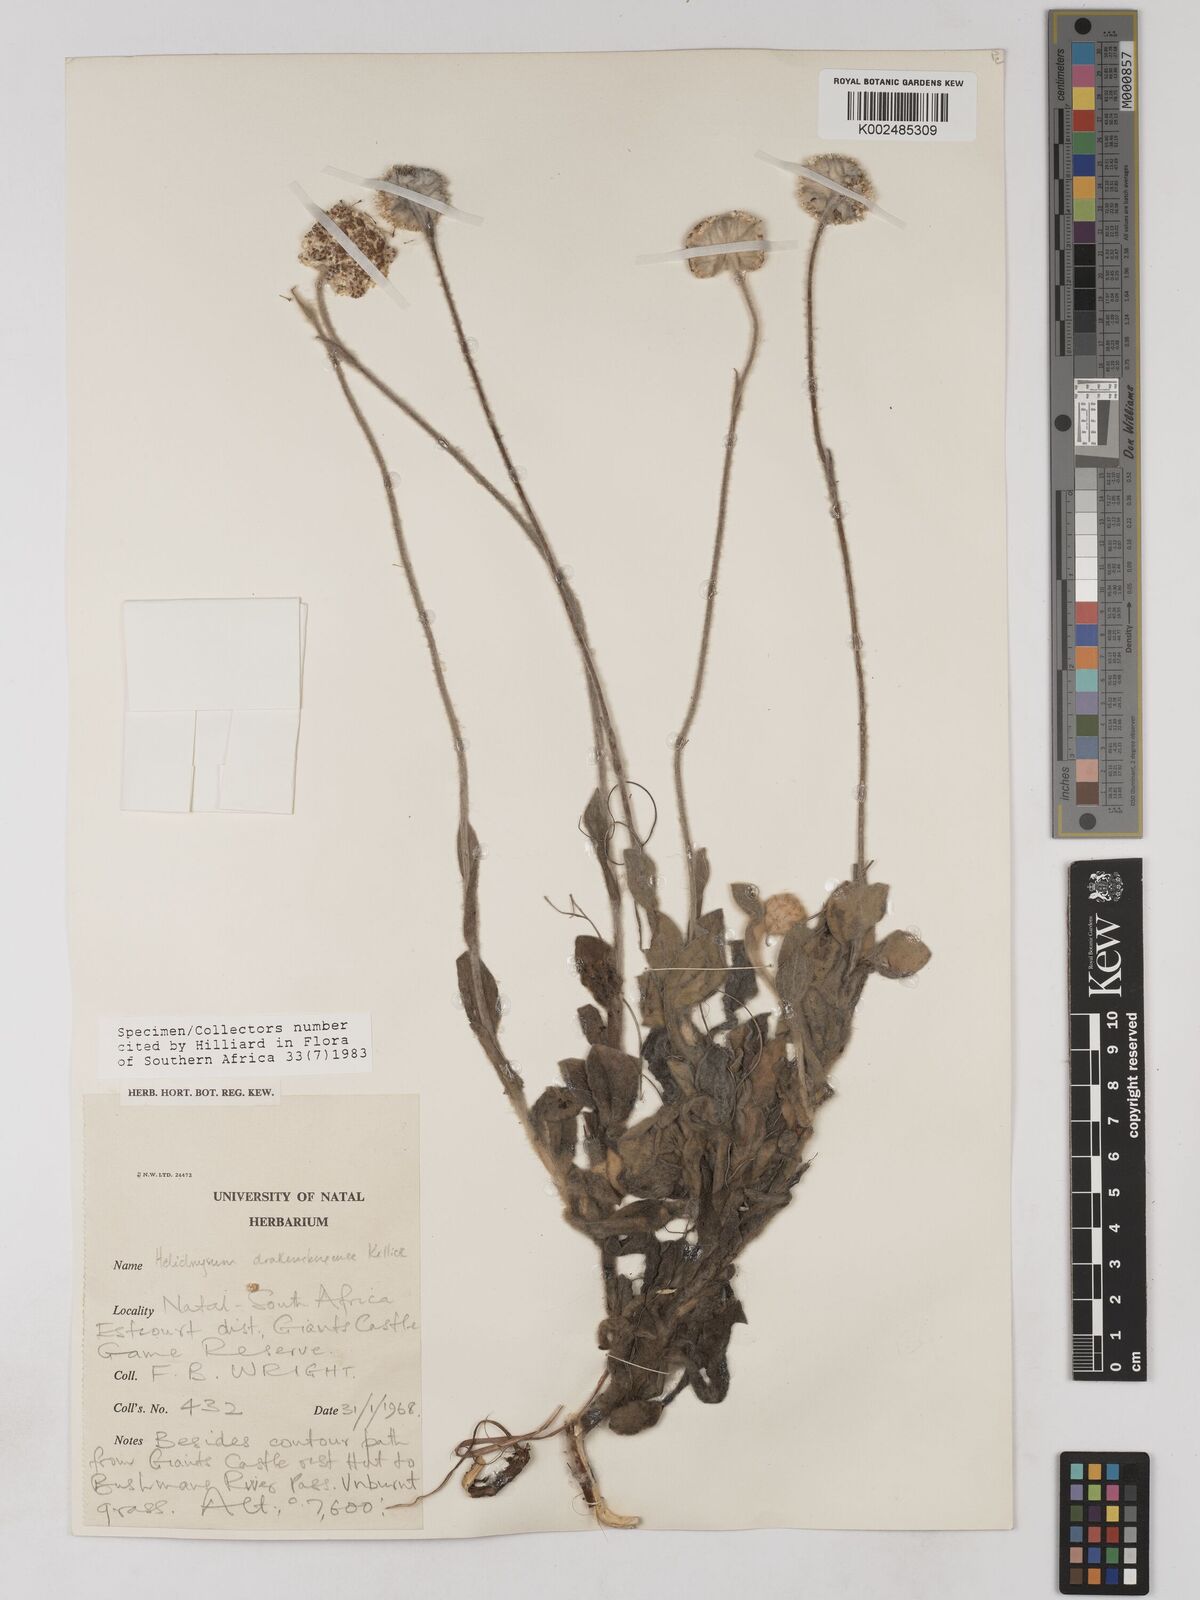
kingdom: Plantae
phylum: Tracheophyta
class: Magnoliopsida
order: Asterales
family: Asteraceae
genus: Helichrysum
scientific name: Helichrysum drakensbergense
